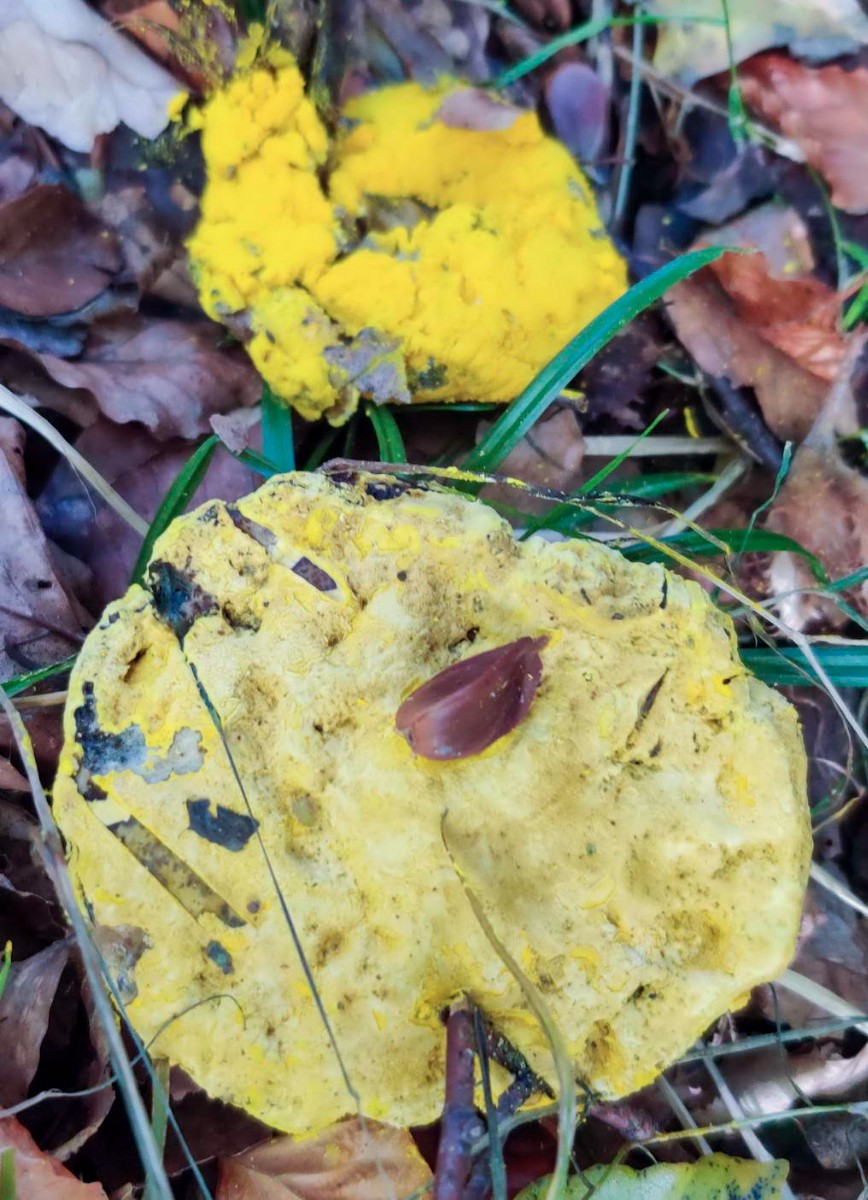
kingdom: Fungi
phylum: Ascomycota
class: Sordariomycetes
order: Hypocreales
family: Hypocreaceae
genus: Hypomyces
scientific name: Hypomyces microspermus
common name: dværgrørhat-snylteskorpe
